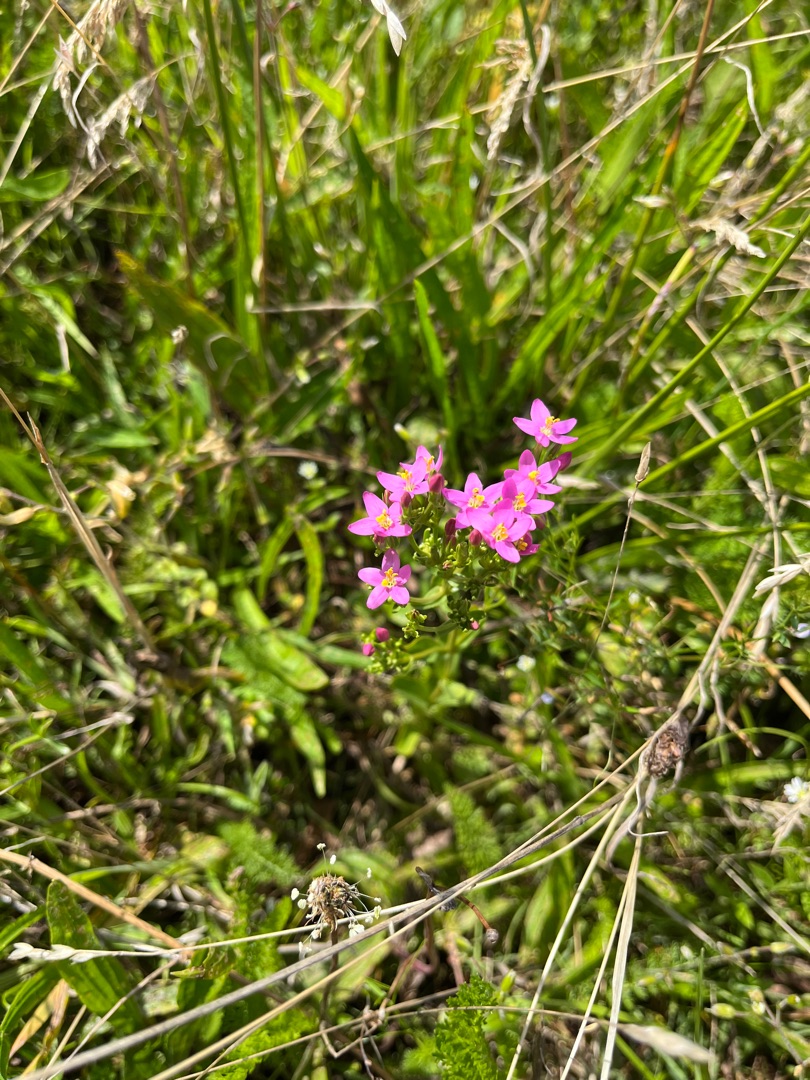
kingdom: Plantae
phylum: Tracheophyta
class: Magnoliopsida
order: Gentianales
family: Gentianaceae
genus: Centaurium
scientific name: Centaurium erythraea
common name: Mark-tusindgylden
